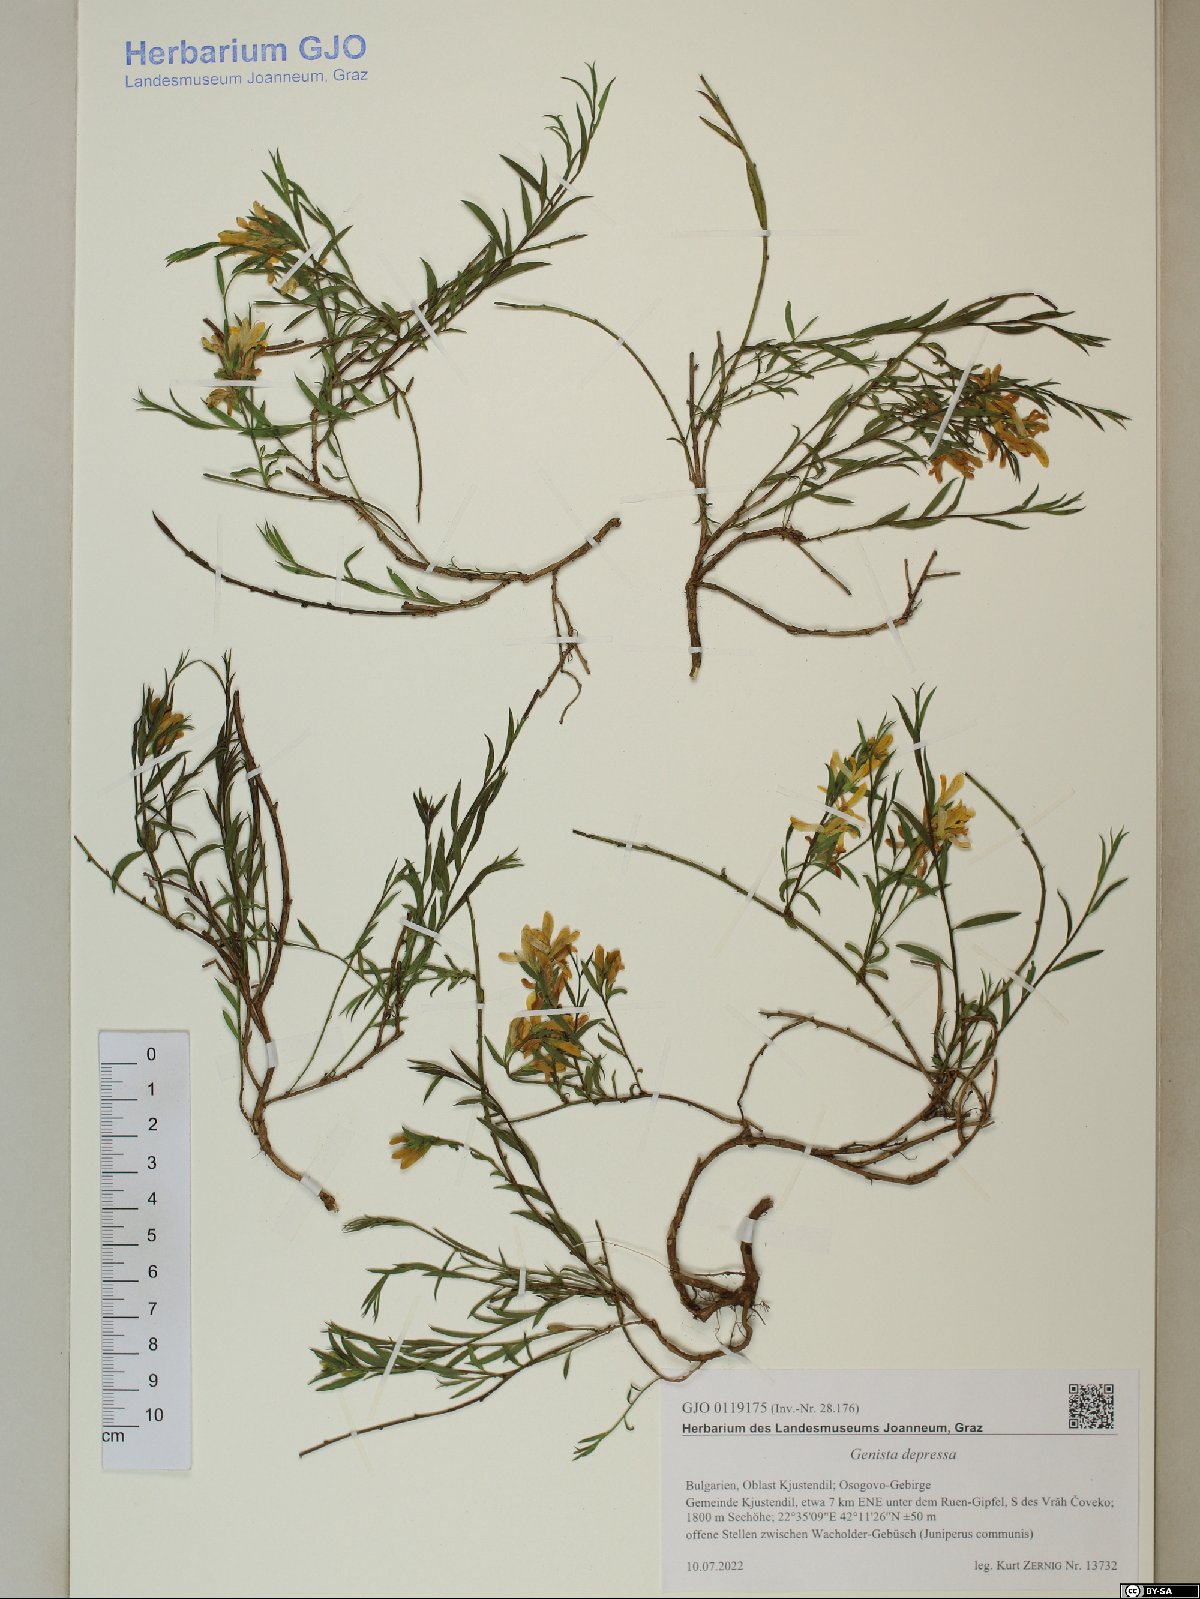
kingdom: Plantae
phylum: Tracheophyta
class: Magnoliopsida
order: Fabales
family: Fabaceae
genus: Genista
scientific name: Genista depressa
